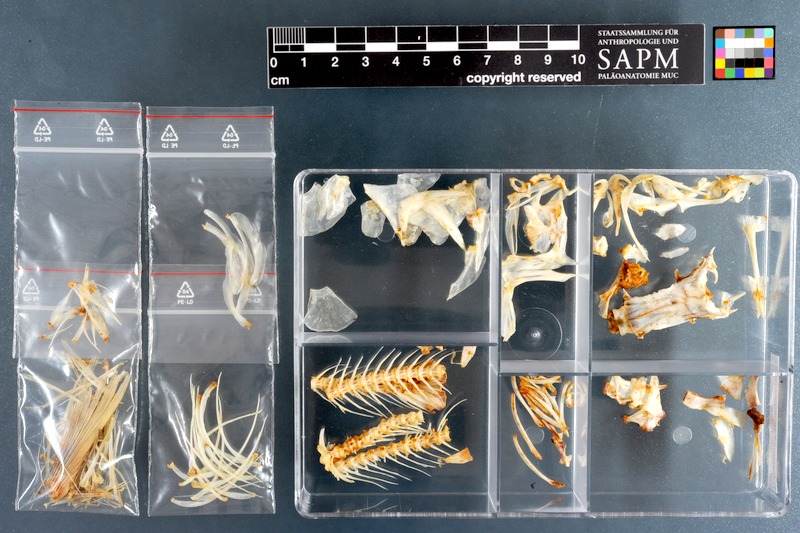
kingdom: Animalia
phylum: Chordata
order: Cypriniformes
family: Cyprinidae
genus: Raiamas
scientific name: Raiamas senegalensis
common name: Senegal minnow
